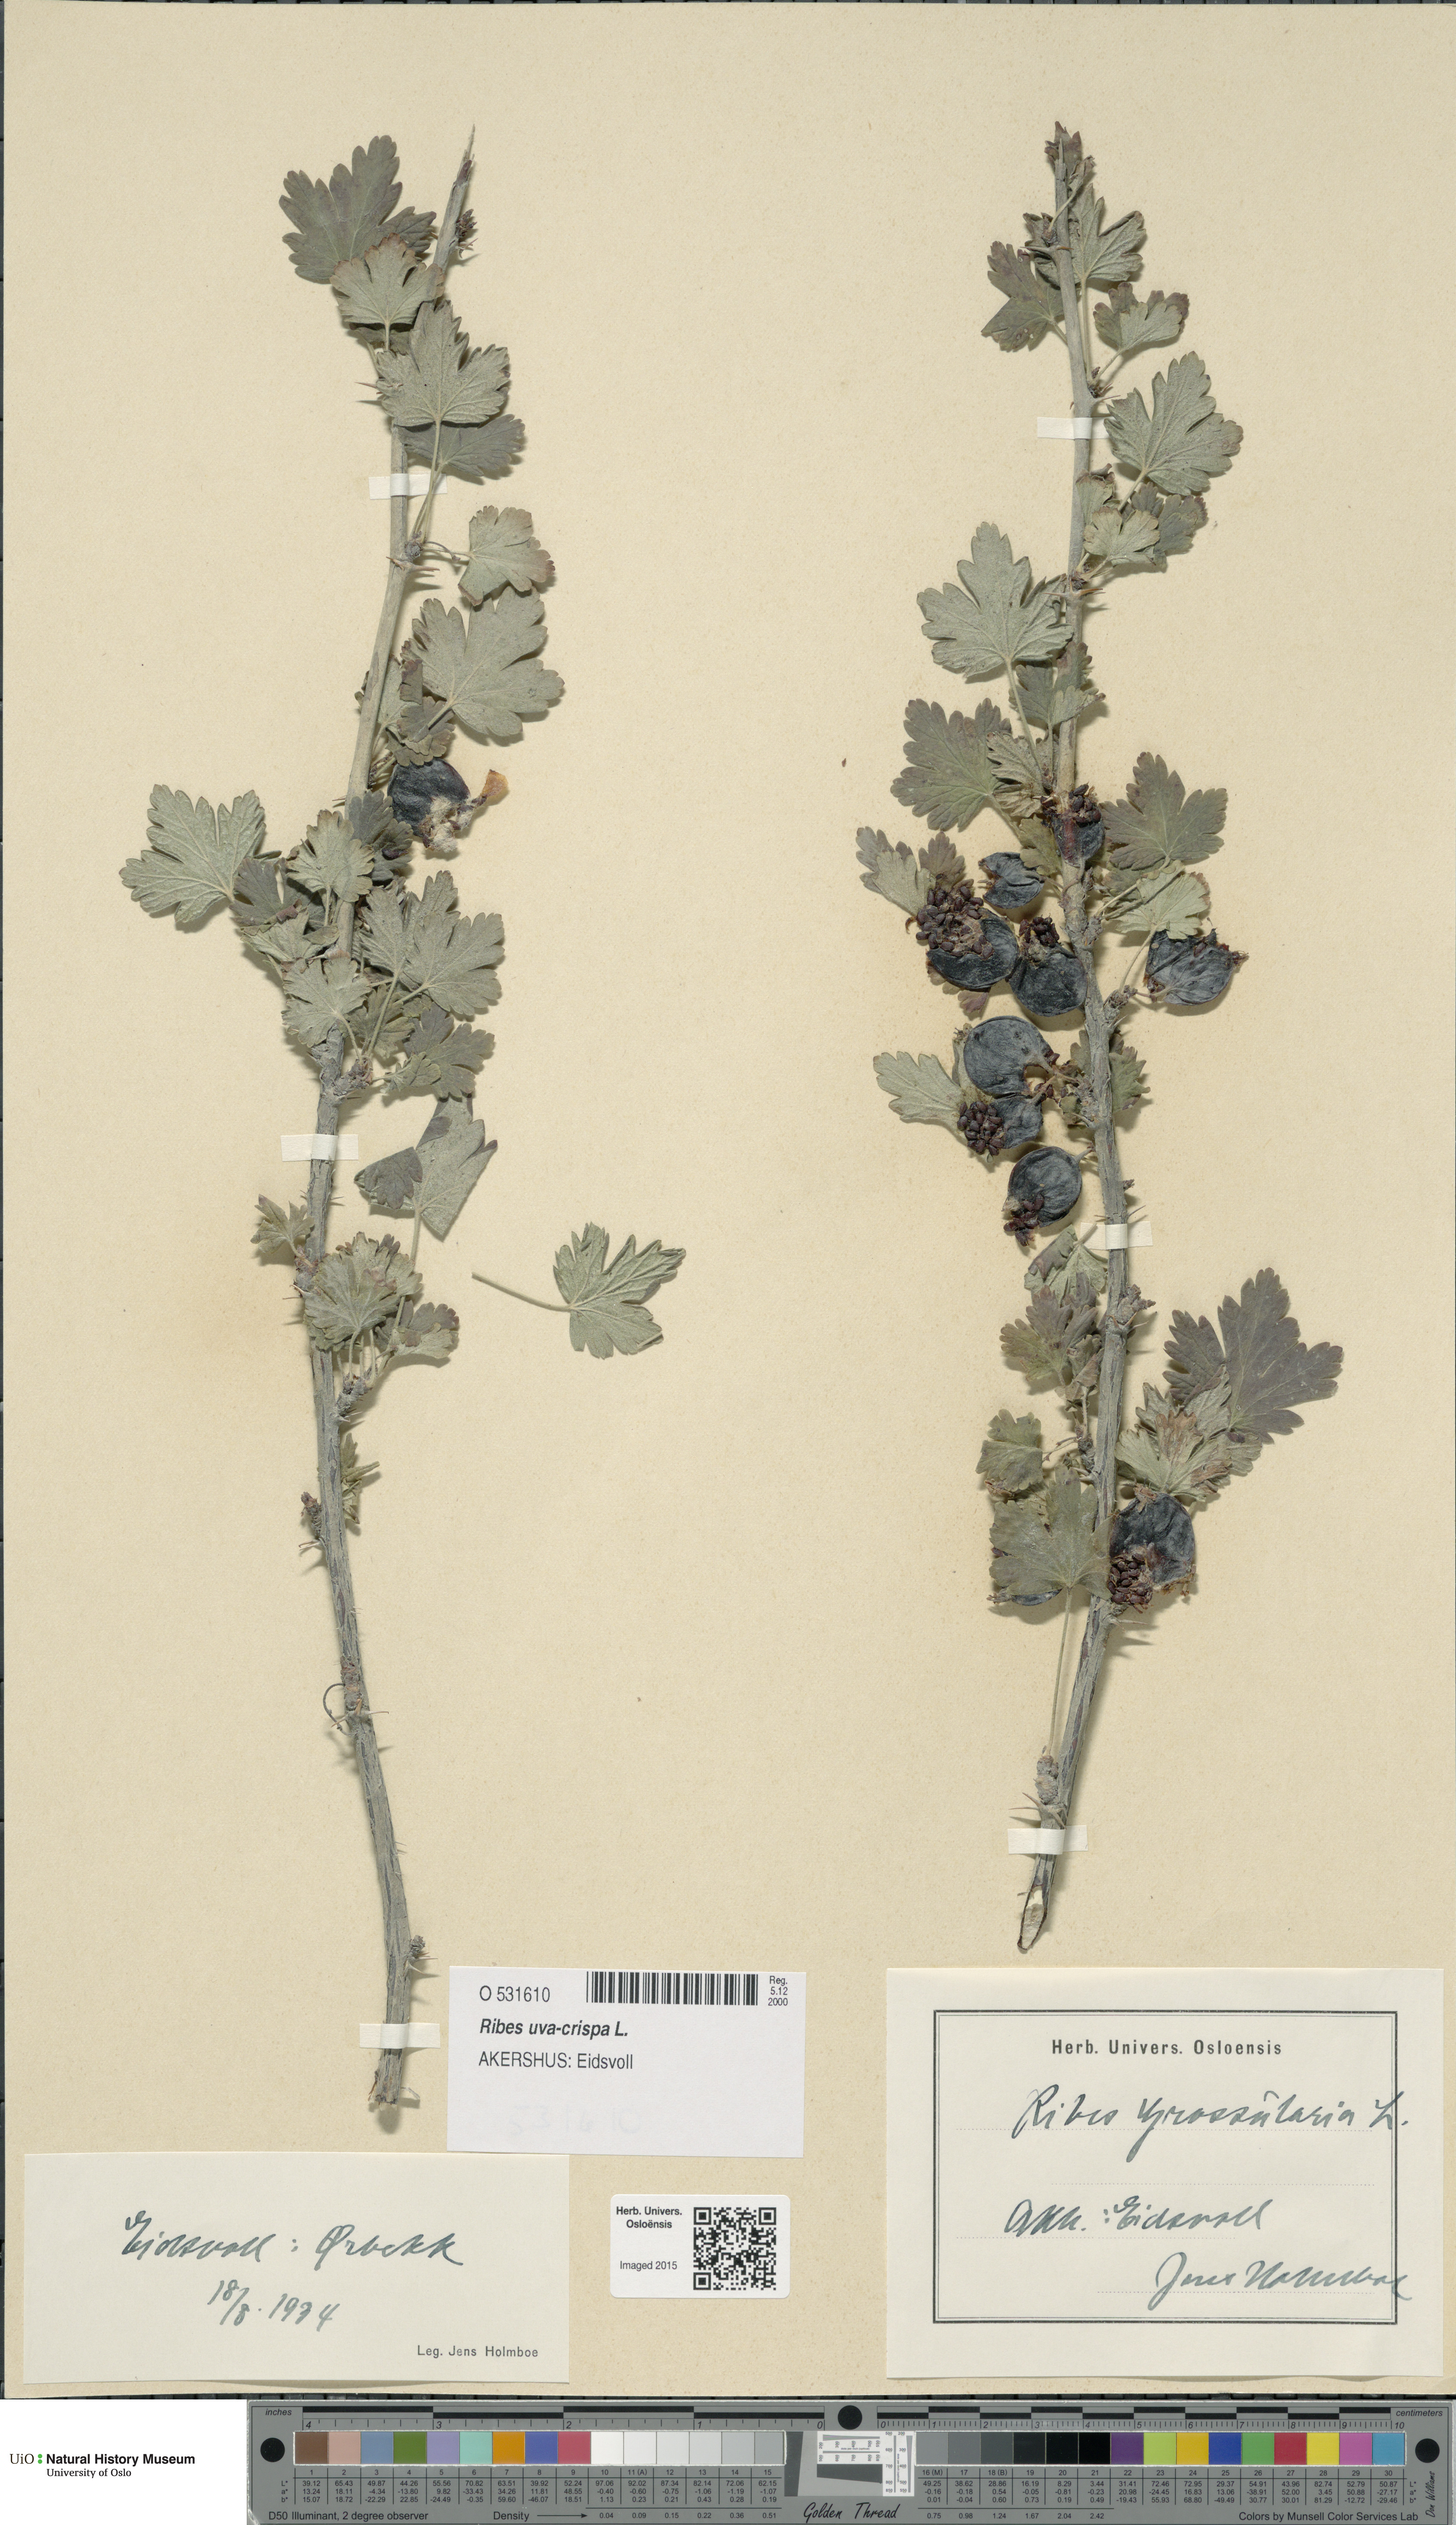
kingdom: Plantae
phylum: Tracheophyta
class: Magnoliopsida
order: Saxifragales
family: Grossulariaceae
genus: Ribes
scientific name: Ribes uva-crispa
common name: Gooseberry
